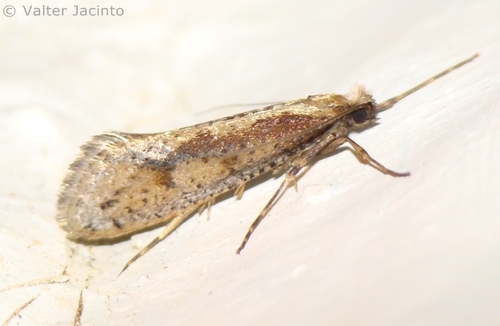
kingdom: Animalia
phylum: Arthropoda
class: Insecta
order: Lepidoptera
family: Eriocottidae
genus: Deuterotinea
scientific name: Deuterotinea paradoxella
